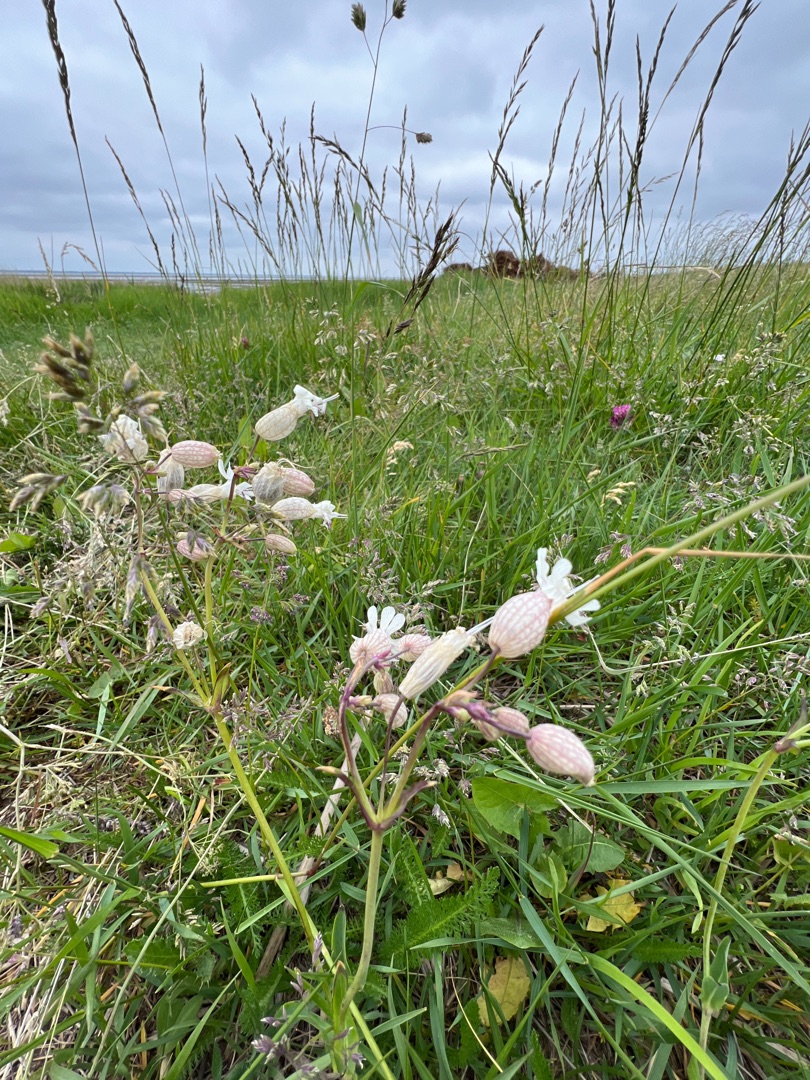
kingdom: Plantae
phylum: Tracheophyta
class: Magnoliopsida
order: Caryophyllales
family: Caryophyllaceae
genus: Silene
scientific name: Silene vulgaris
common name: Blæresmælde
